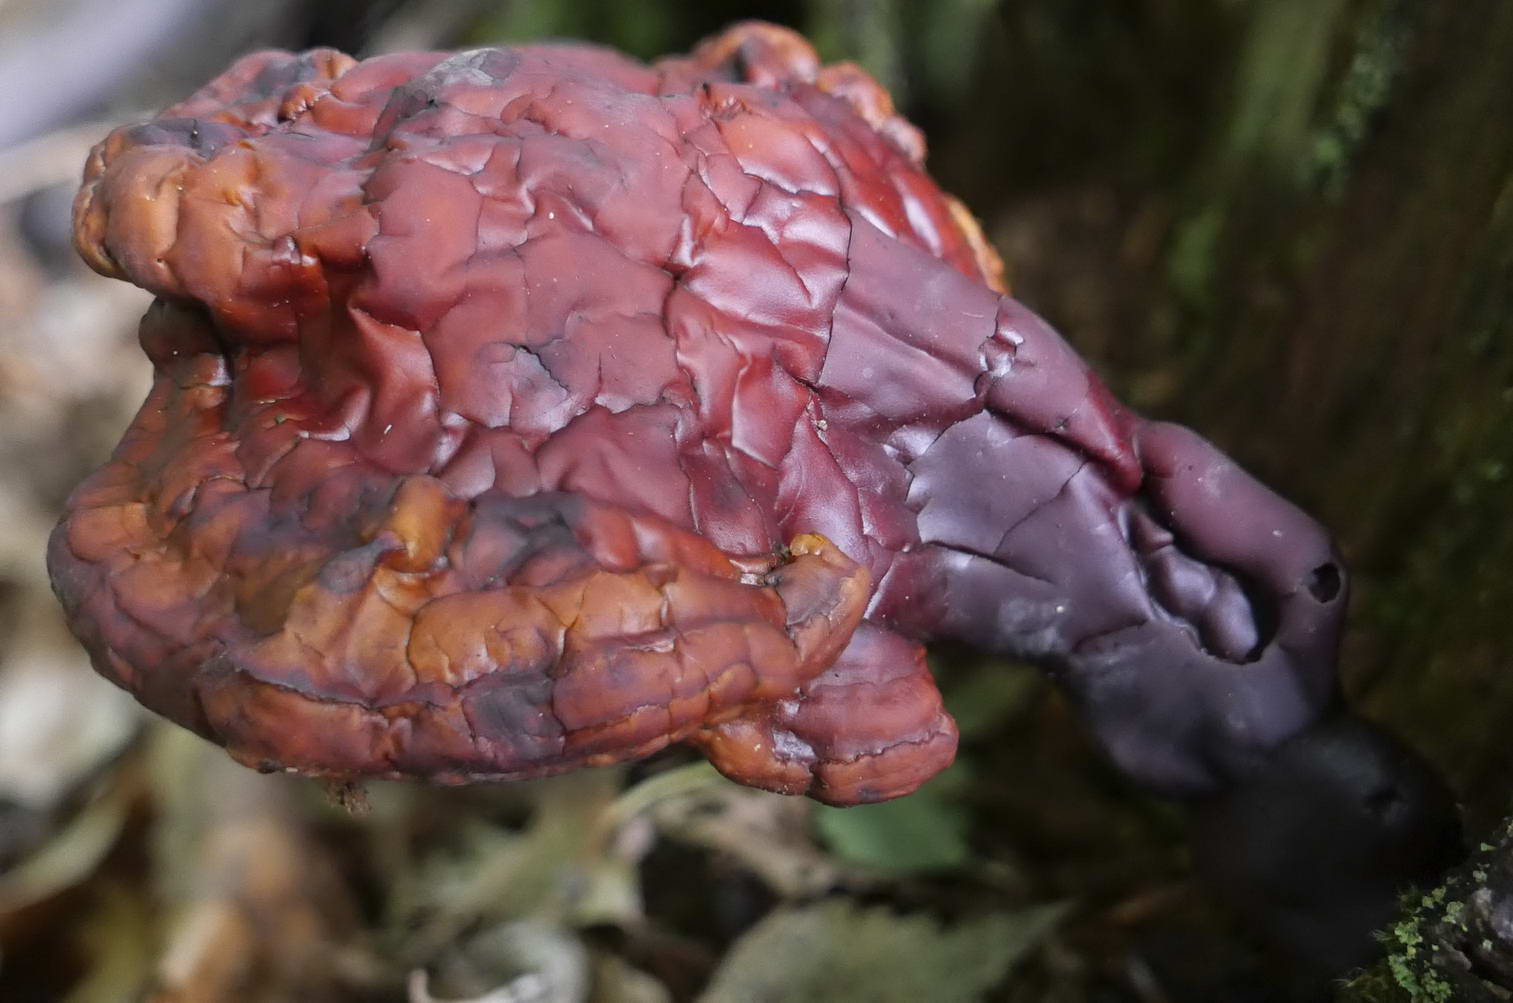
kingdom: Fungi
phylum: Basidiomycota
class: Agaricomycetes
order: Polyporales
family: Polyporaceae
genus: Ganoderma
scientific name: Ganoderma lucidum
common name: skinnende lakporesvamp
